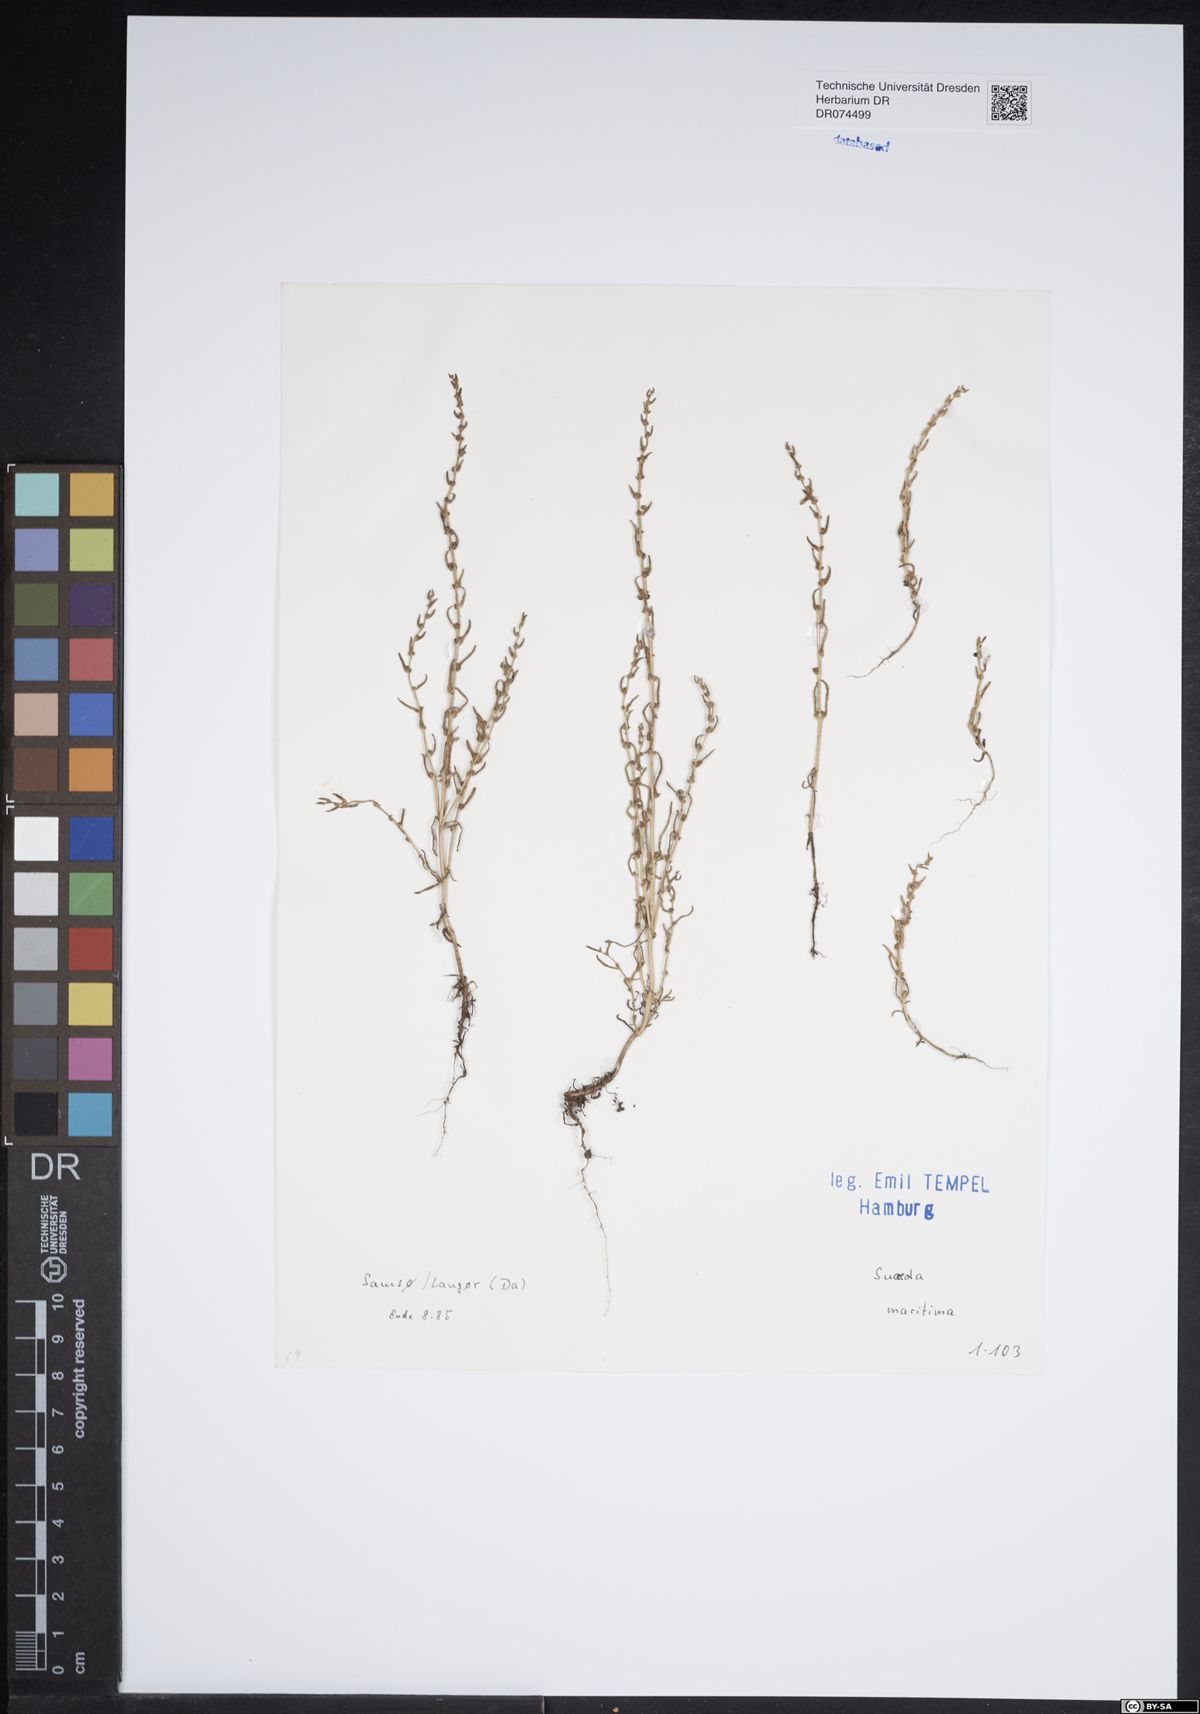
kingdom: Plantae
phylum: Tracheophyta
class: Magnoliopsida
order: Caryophyllales
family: Amaranthaceae
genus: Suaeda
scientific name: Suaeda maritima
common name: Annual sea-blite
